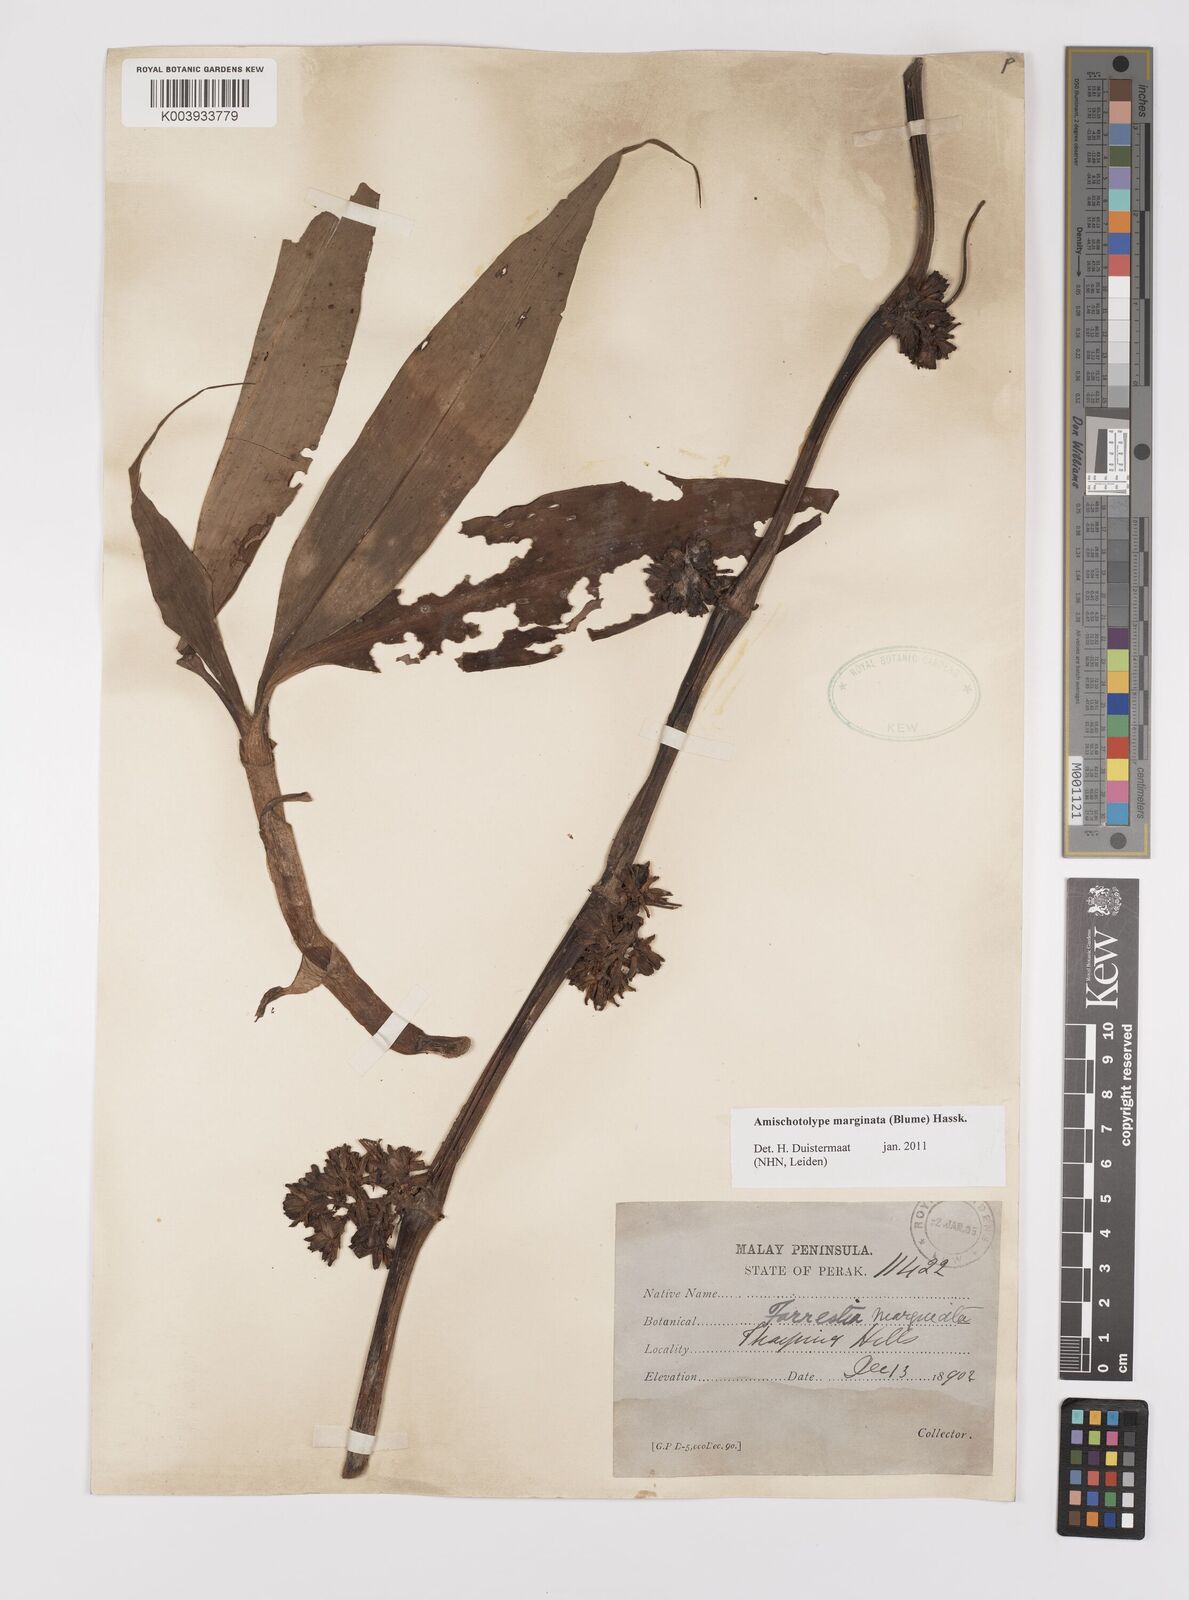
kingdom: Plantae
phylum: Tracheophyta
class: Liliopsida
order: Commelinales
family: Commelinaceae
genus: Amischotolype
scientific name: Amischotolype marginata
